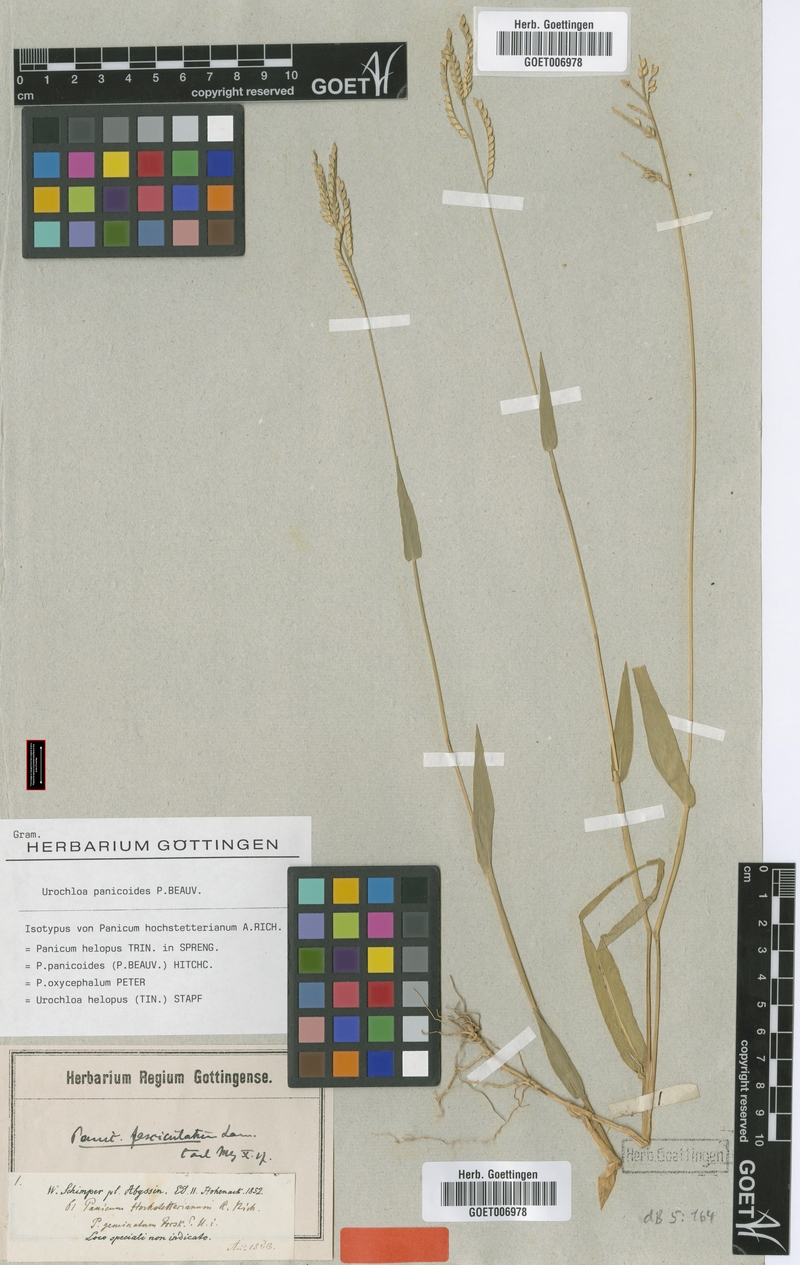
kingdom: Plantae
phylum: Tracheophyta
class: Liliopsida
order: Poales
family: Poaceae
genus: Urochloa
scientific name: Urochloa panicoides
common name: Sharp-flowered signal-grass
